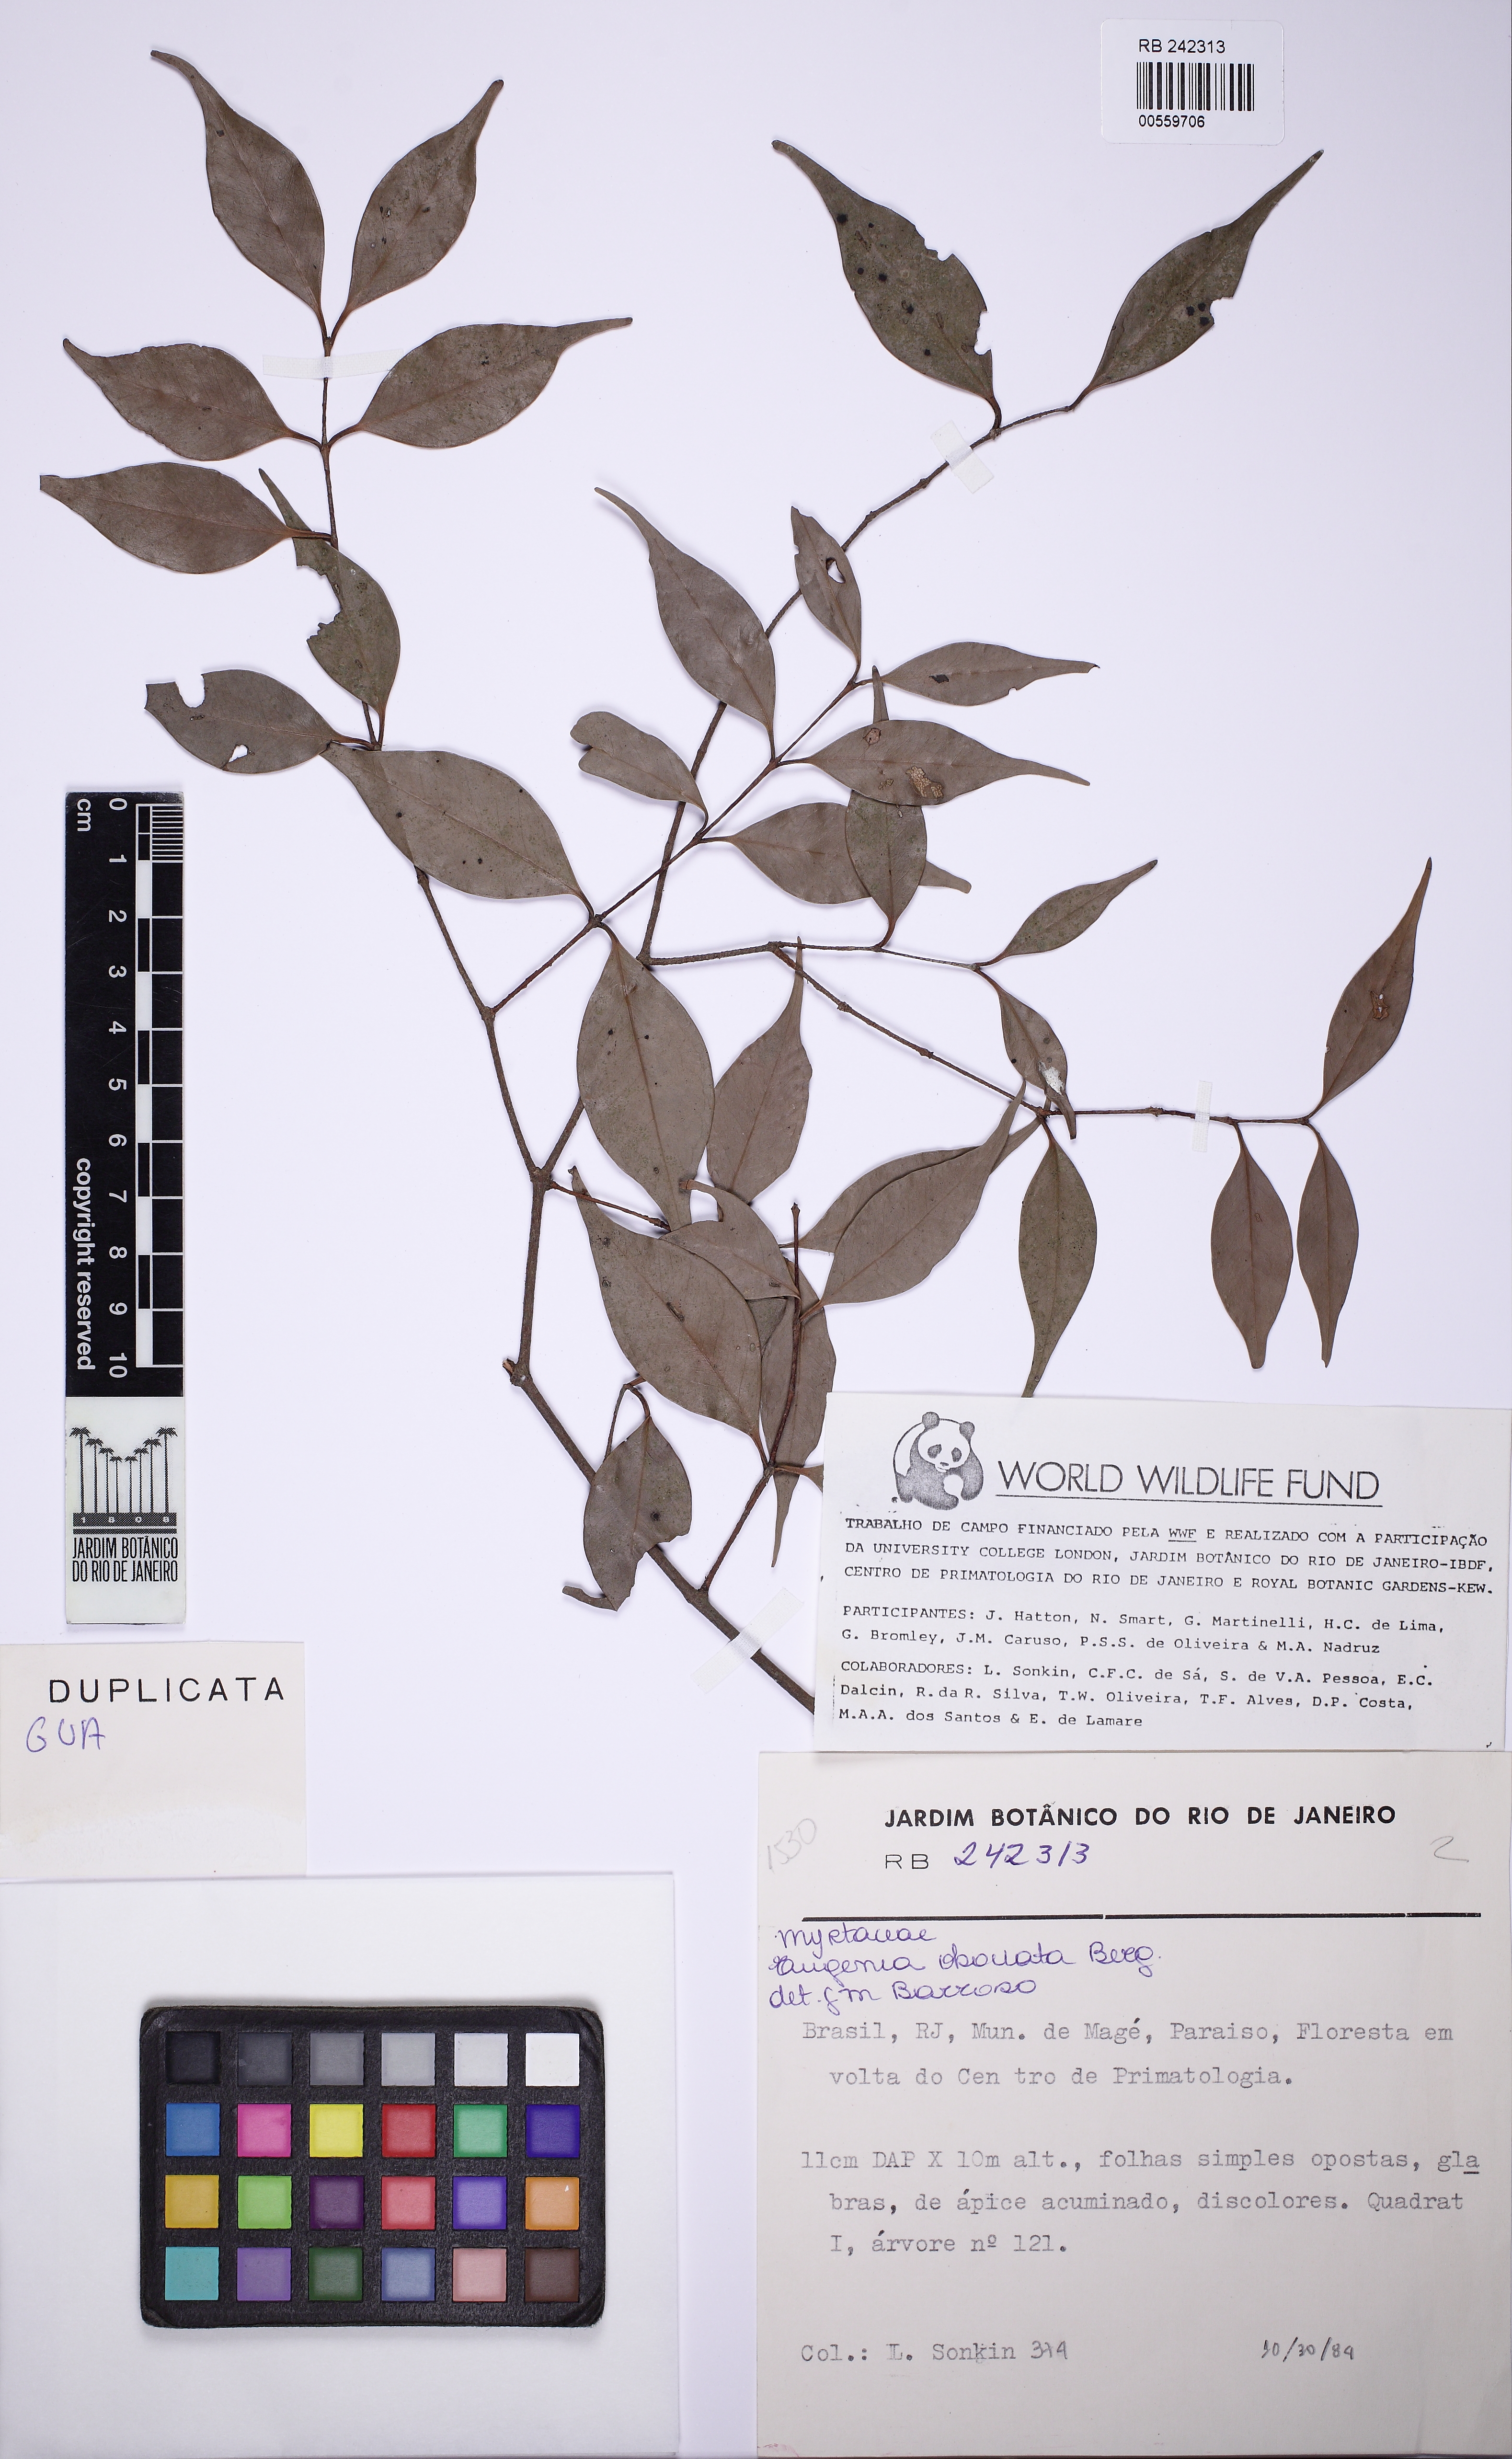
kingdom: Plantae
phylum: Tracheophyta
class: Magnoliopsida
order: Myrtales
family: Myrtaceae
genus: Eugenia
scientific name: Eugenia excelsa
